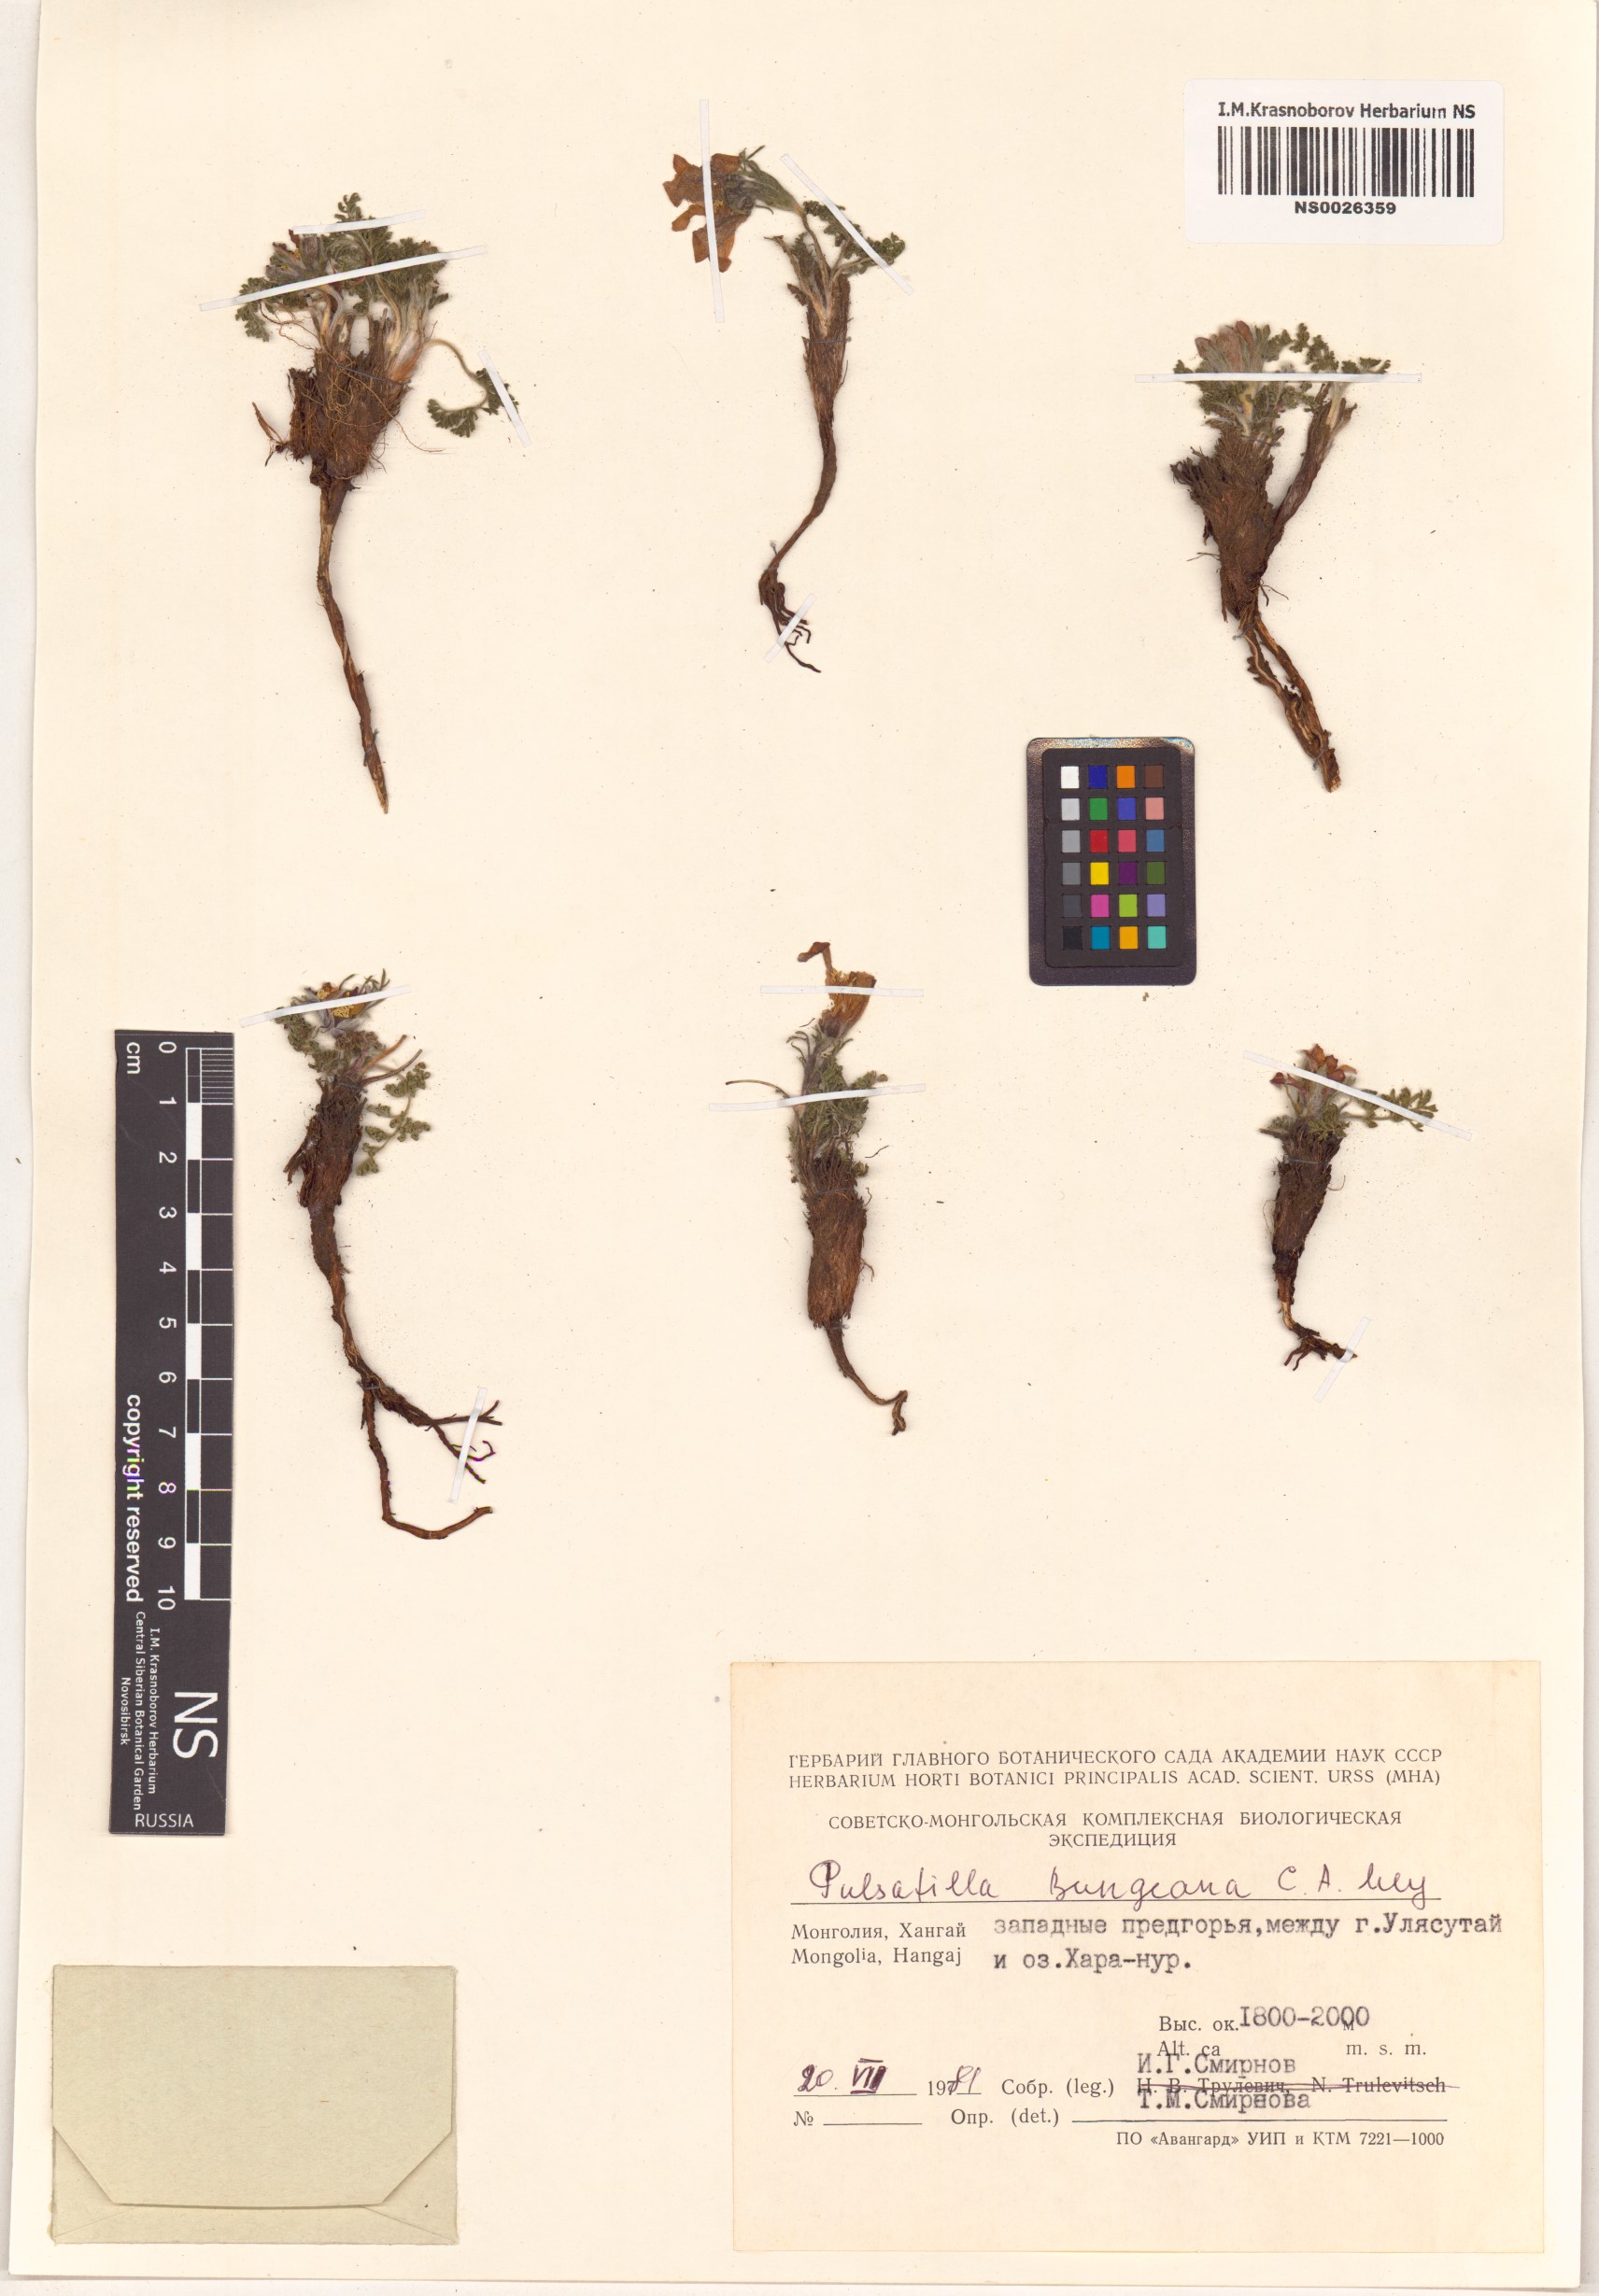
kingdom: Plantae
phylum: Tracheophyta
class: Magnoliopsida
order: Ranunculales
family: Ranunculaceae
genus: Pulsatilla
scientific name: Pulsatilla bungeana
